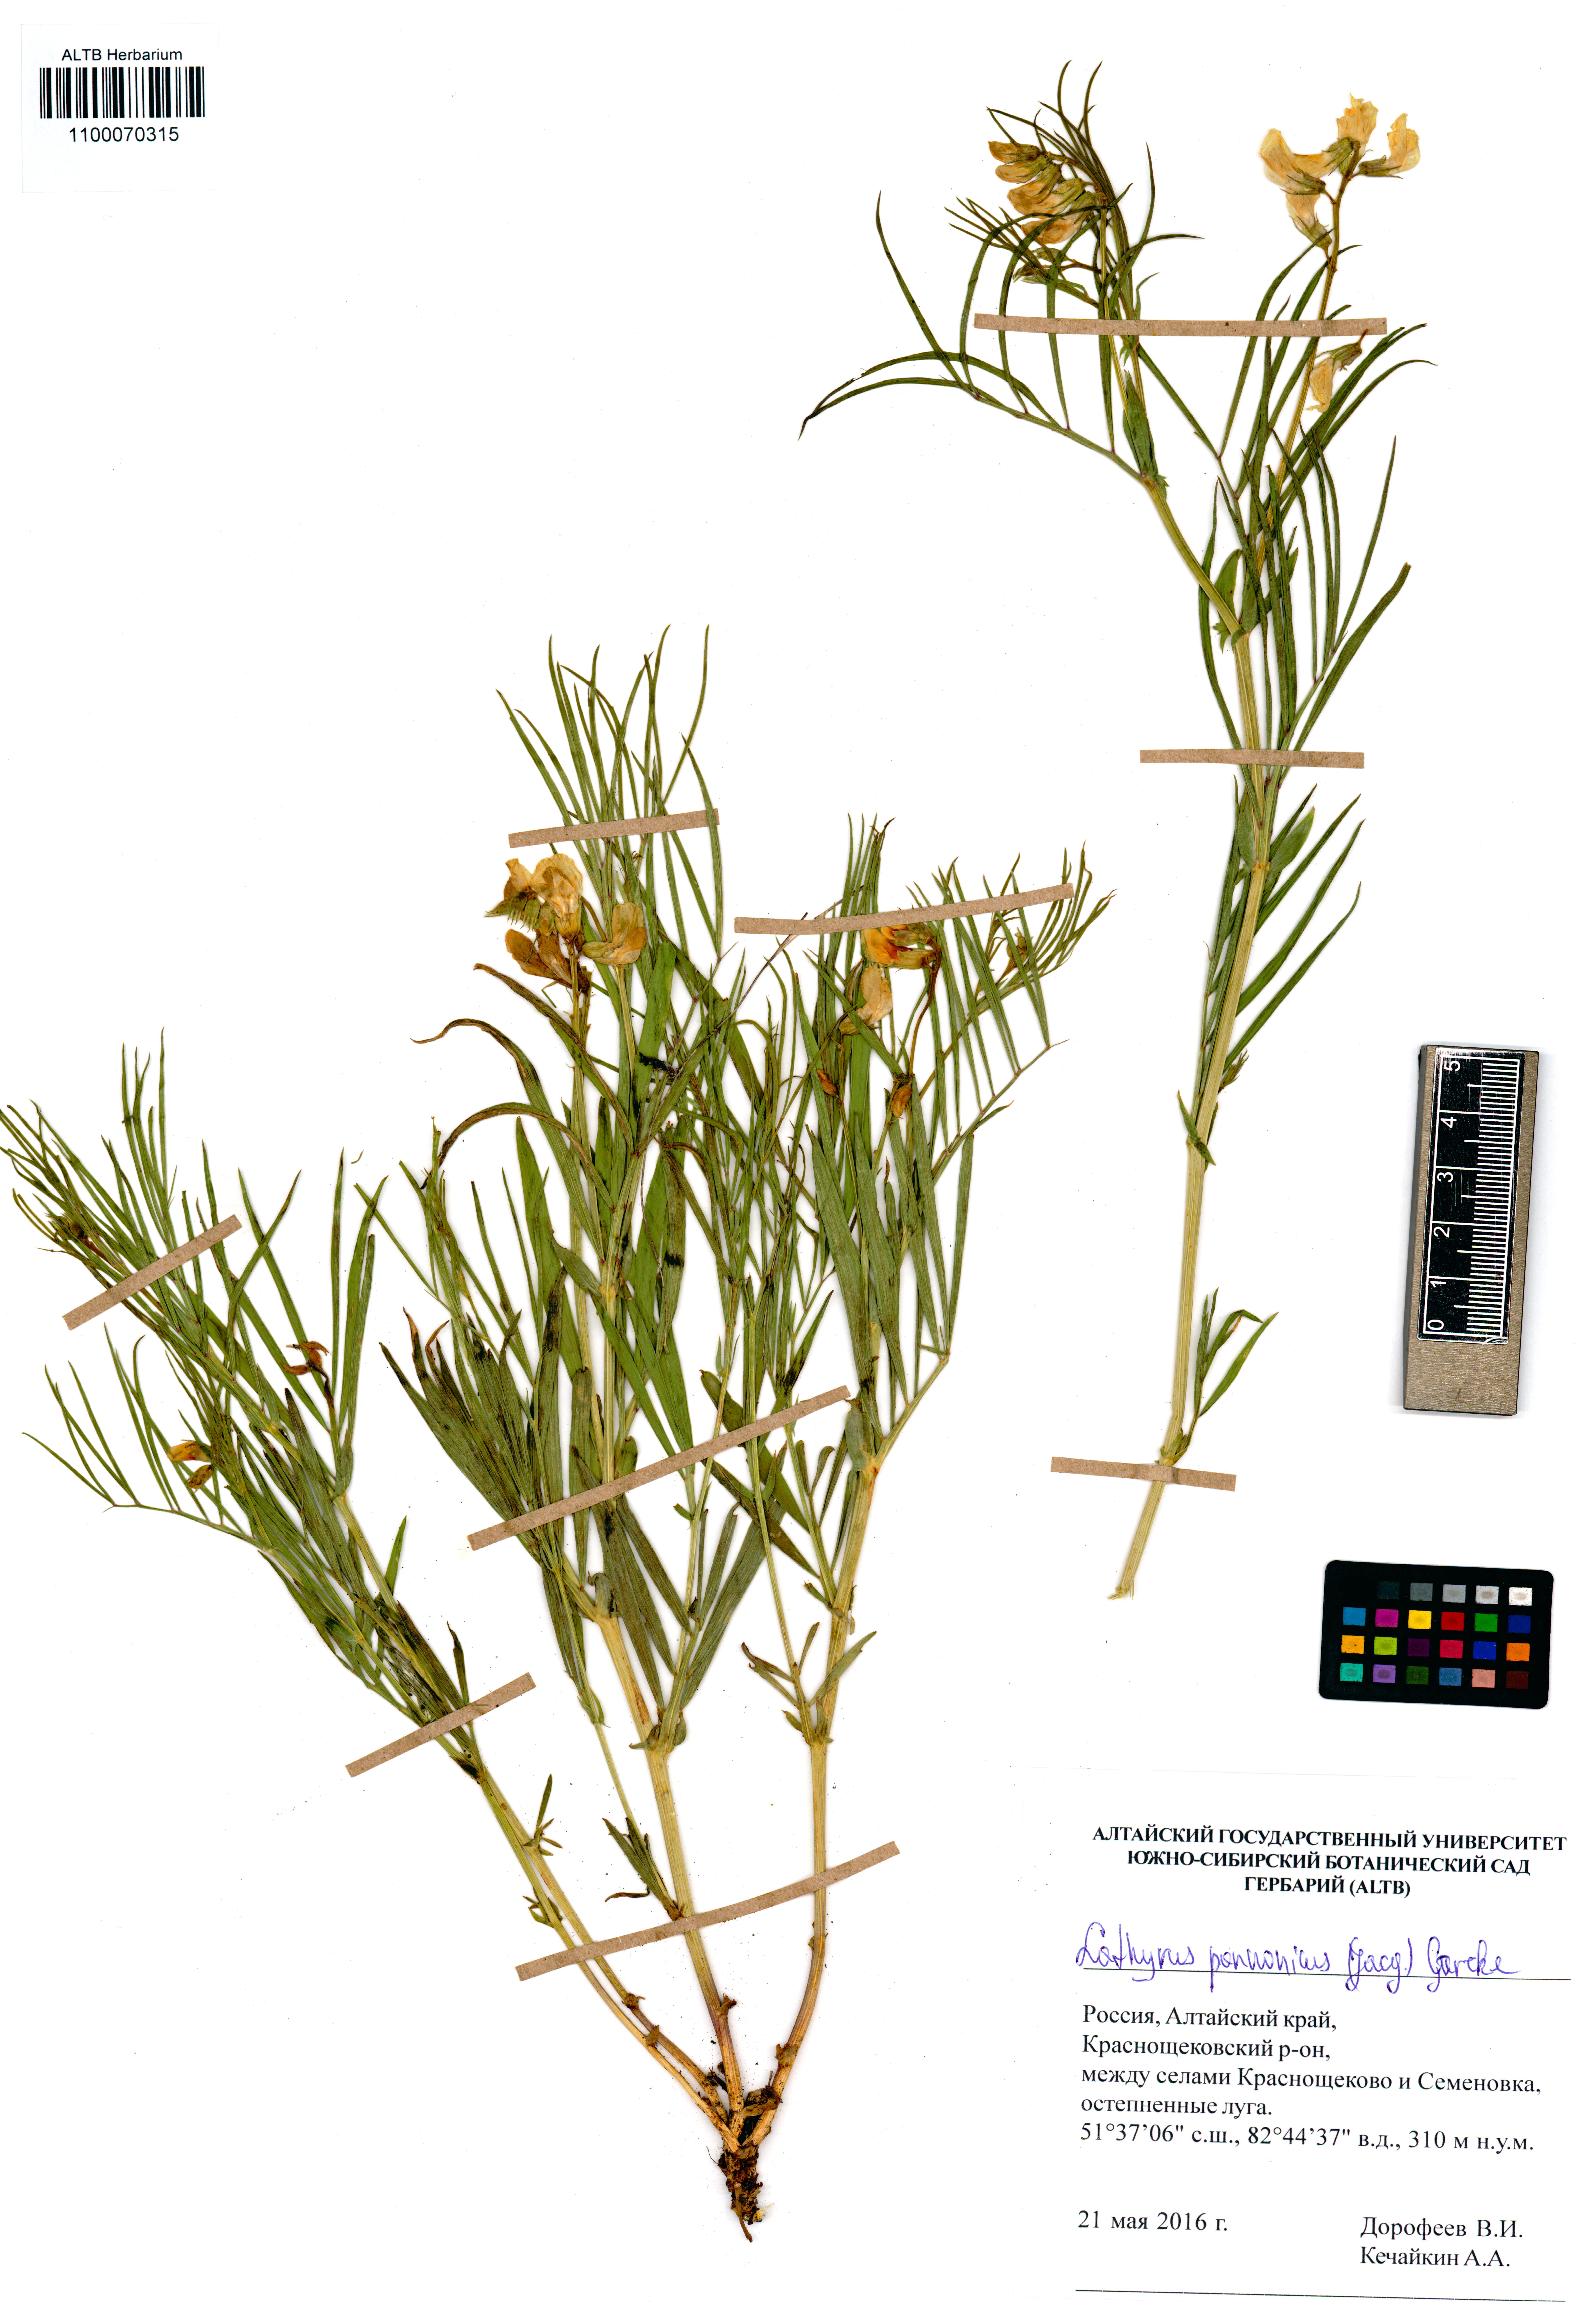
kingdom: Plantae
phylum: Tracheophyta
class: Magnoliopsida
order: Fabales
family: Fabaceae
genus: Lathyrus
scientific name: Lathyrus pannonicus
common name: Pea
